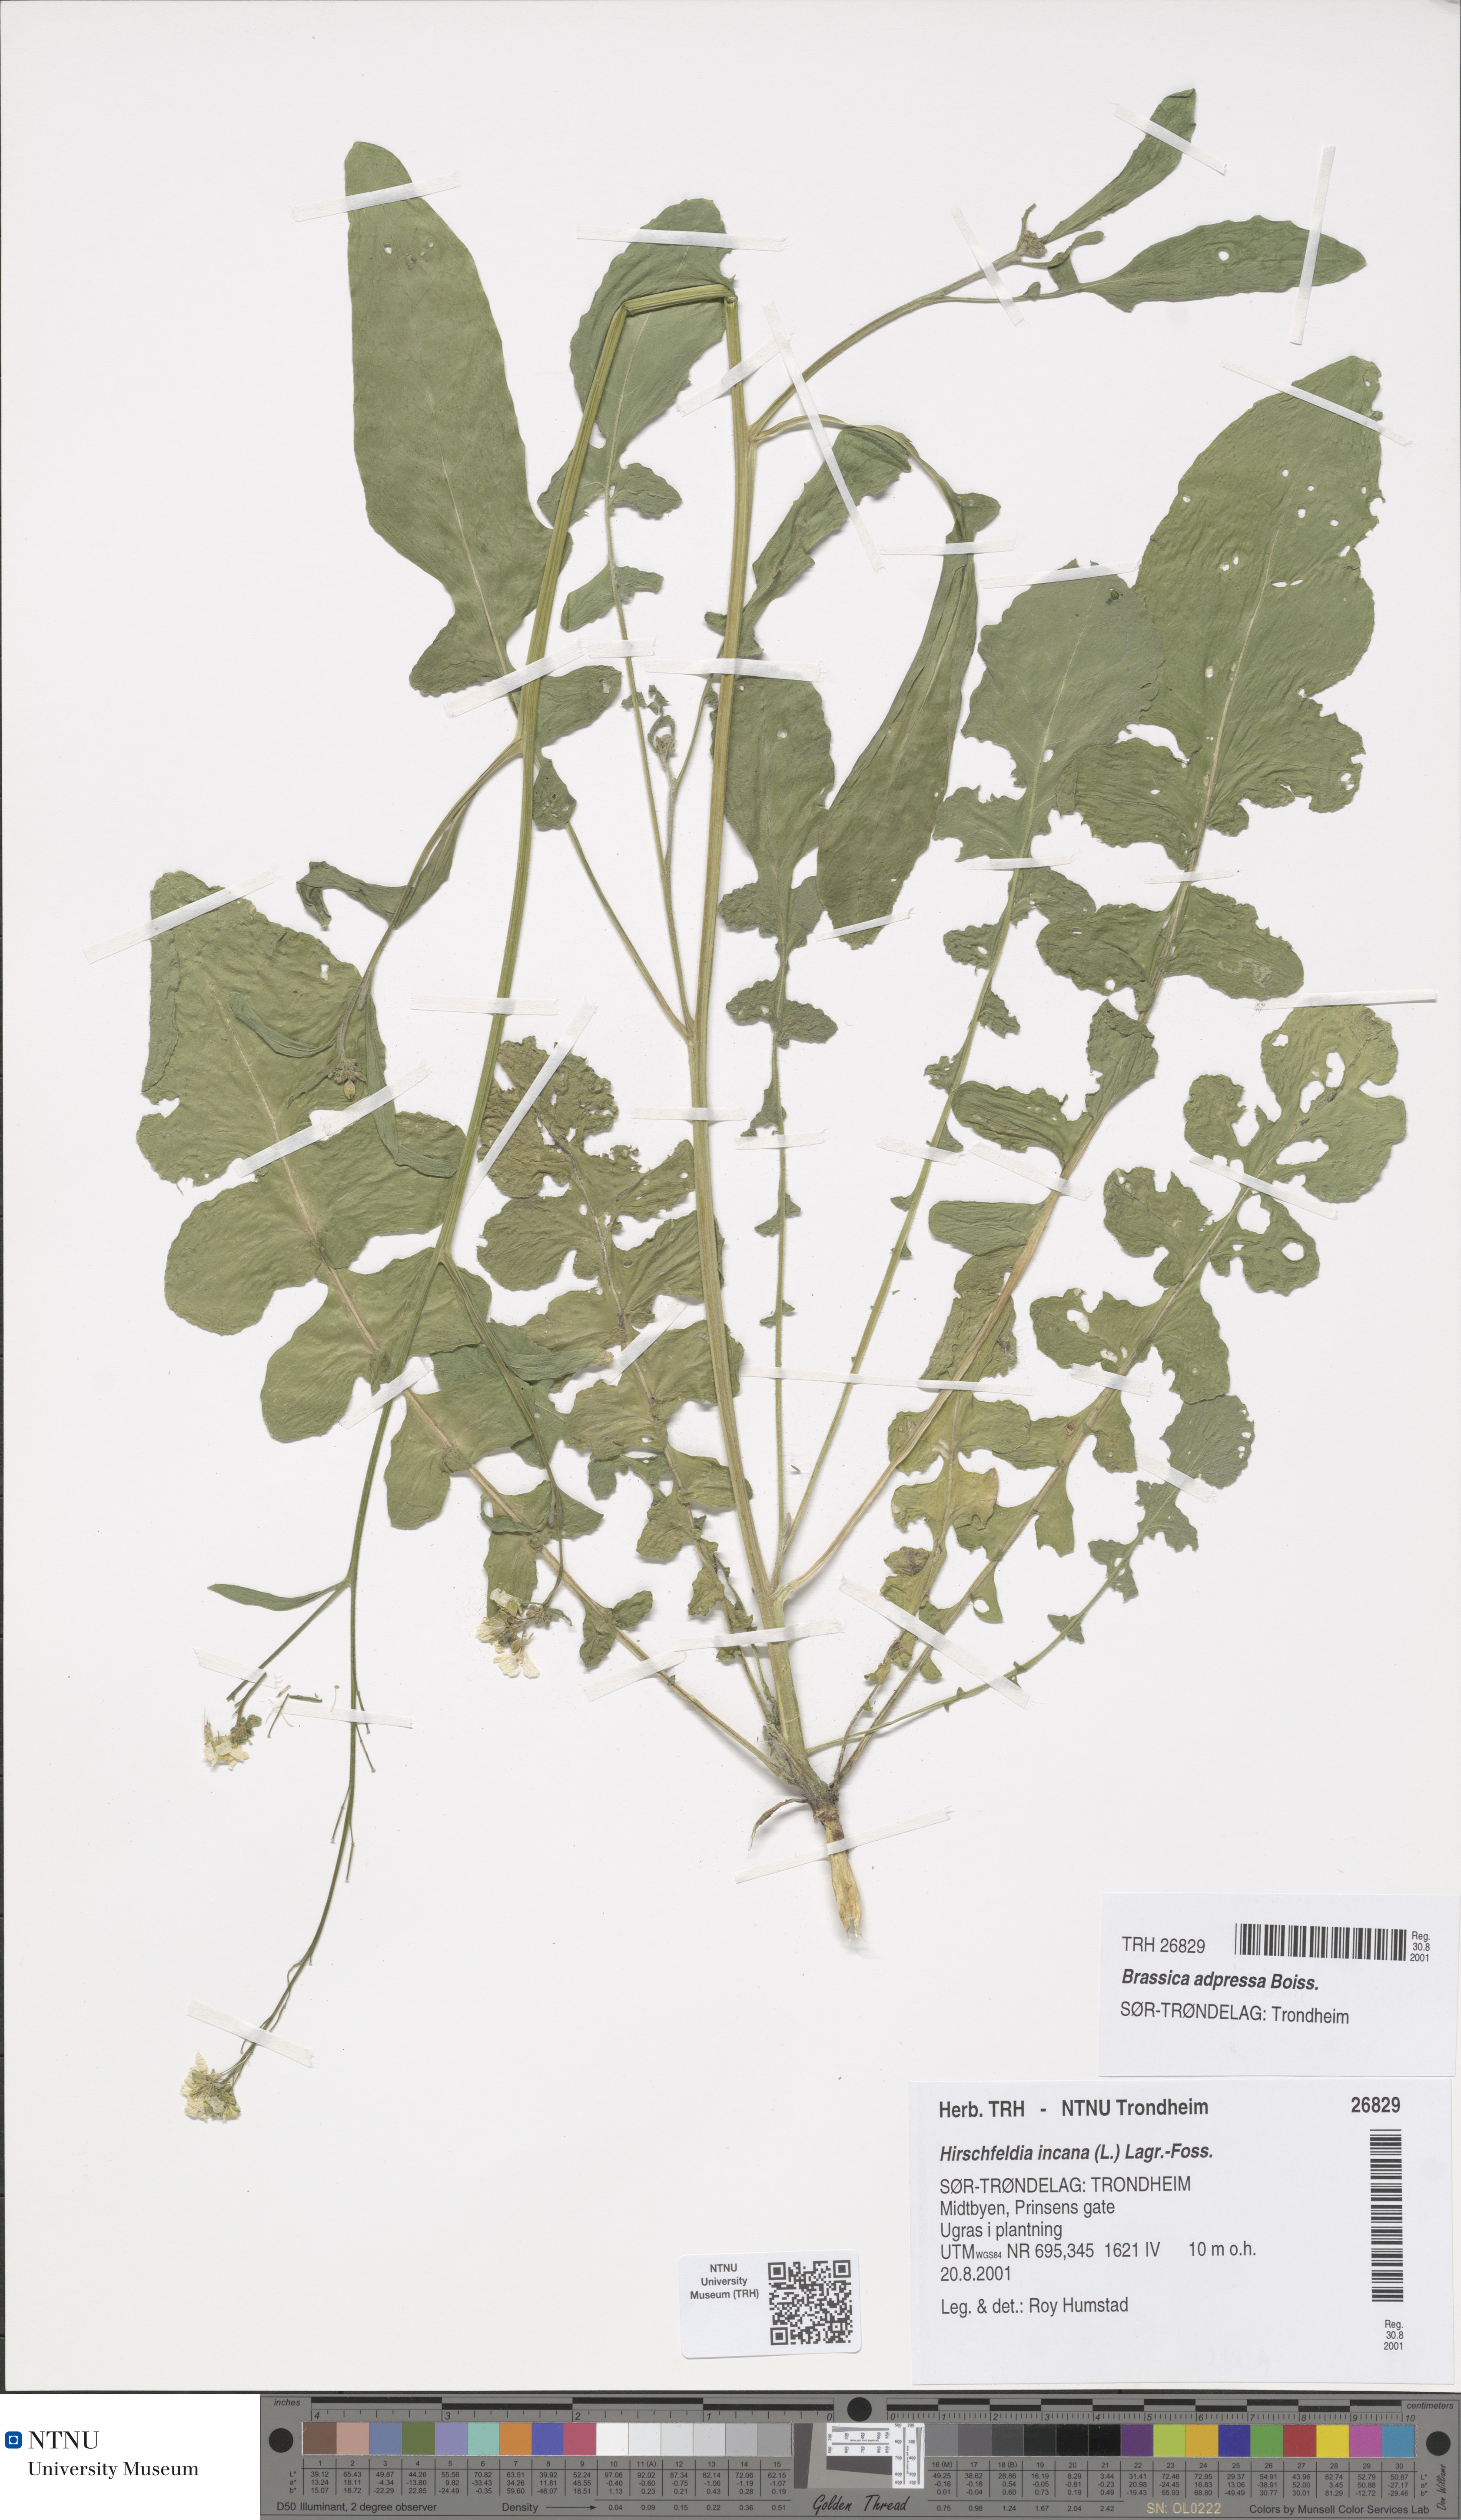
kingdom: Plantae
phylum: Tracheophyta
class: Magnoliopsida
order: Brassicales
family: Brassicaceae
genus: Hirschfeldia
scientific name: Hirschfeldia incana
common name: Hoary mustard
